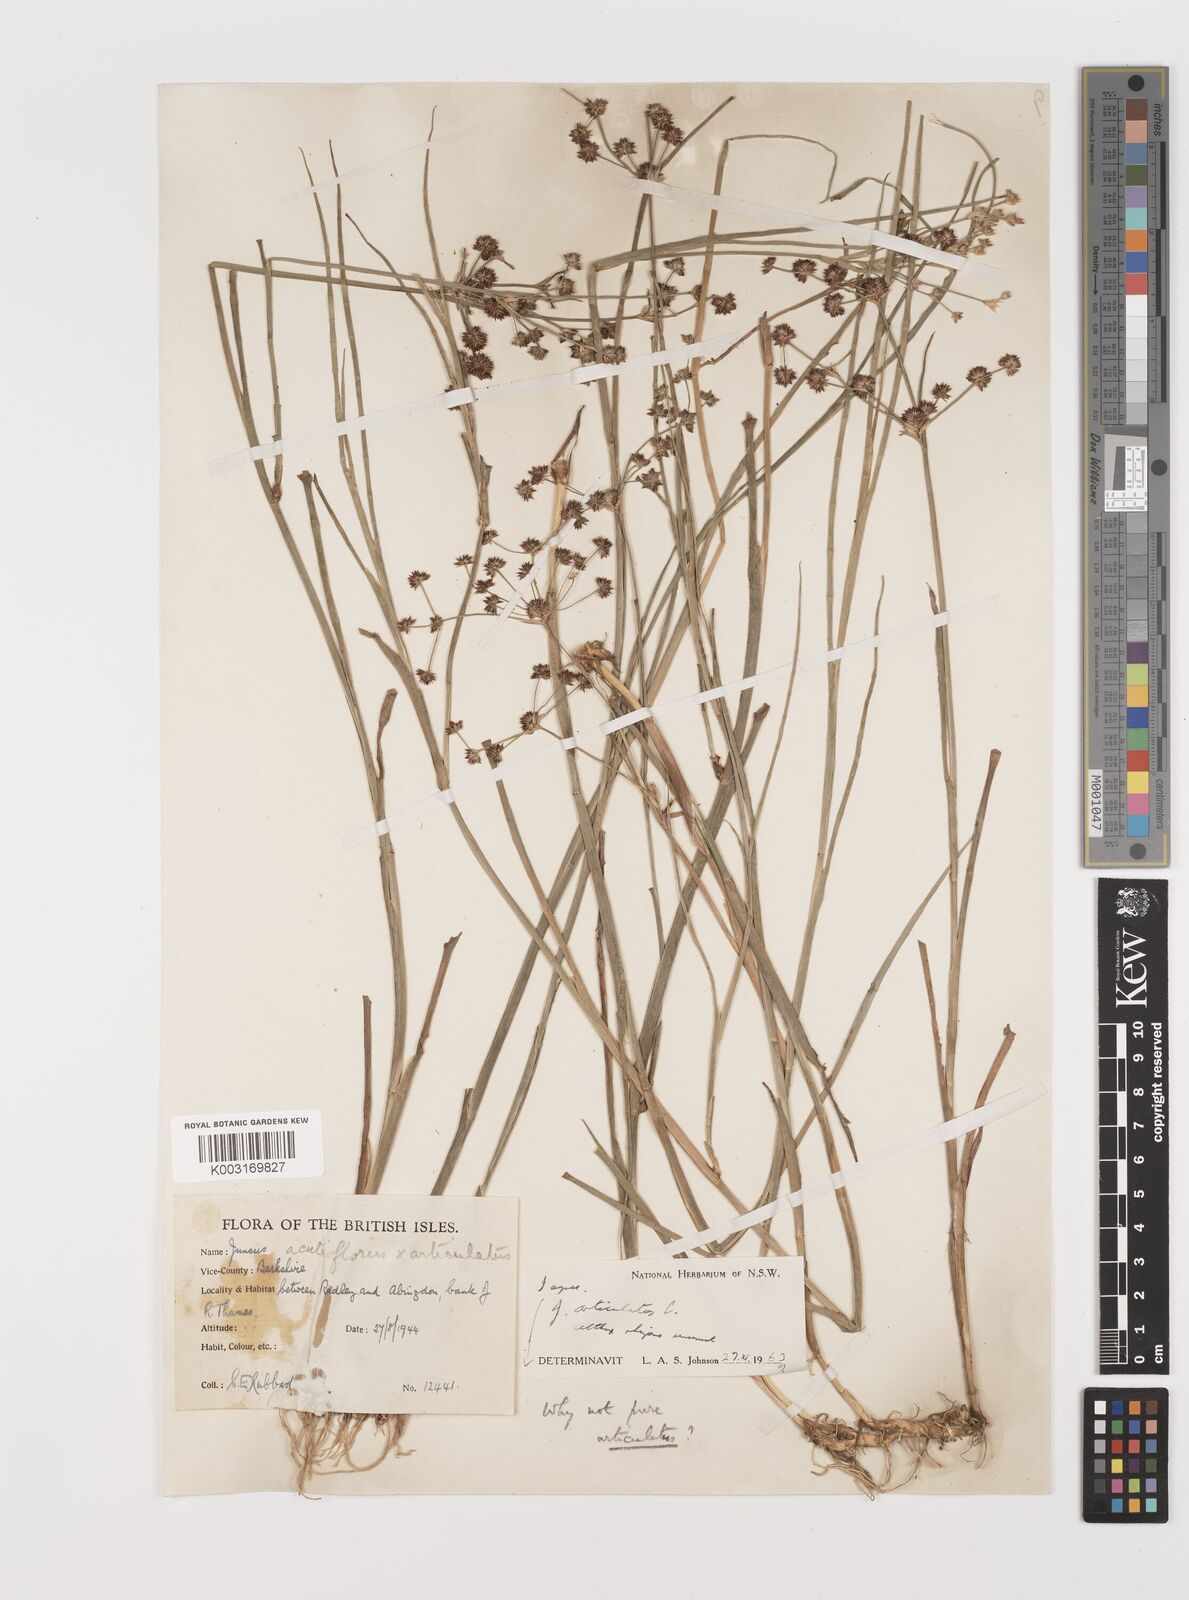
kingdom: Plantae
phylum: Tracheophyta
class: Liliopsida
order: Poales
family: Juncaceae
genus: Juncus
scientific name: Juncus articulatus
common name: Jointed rush
